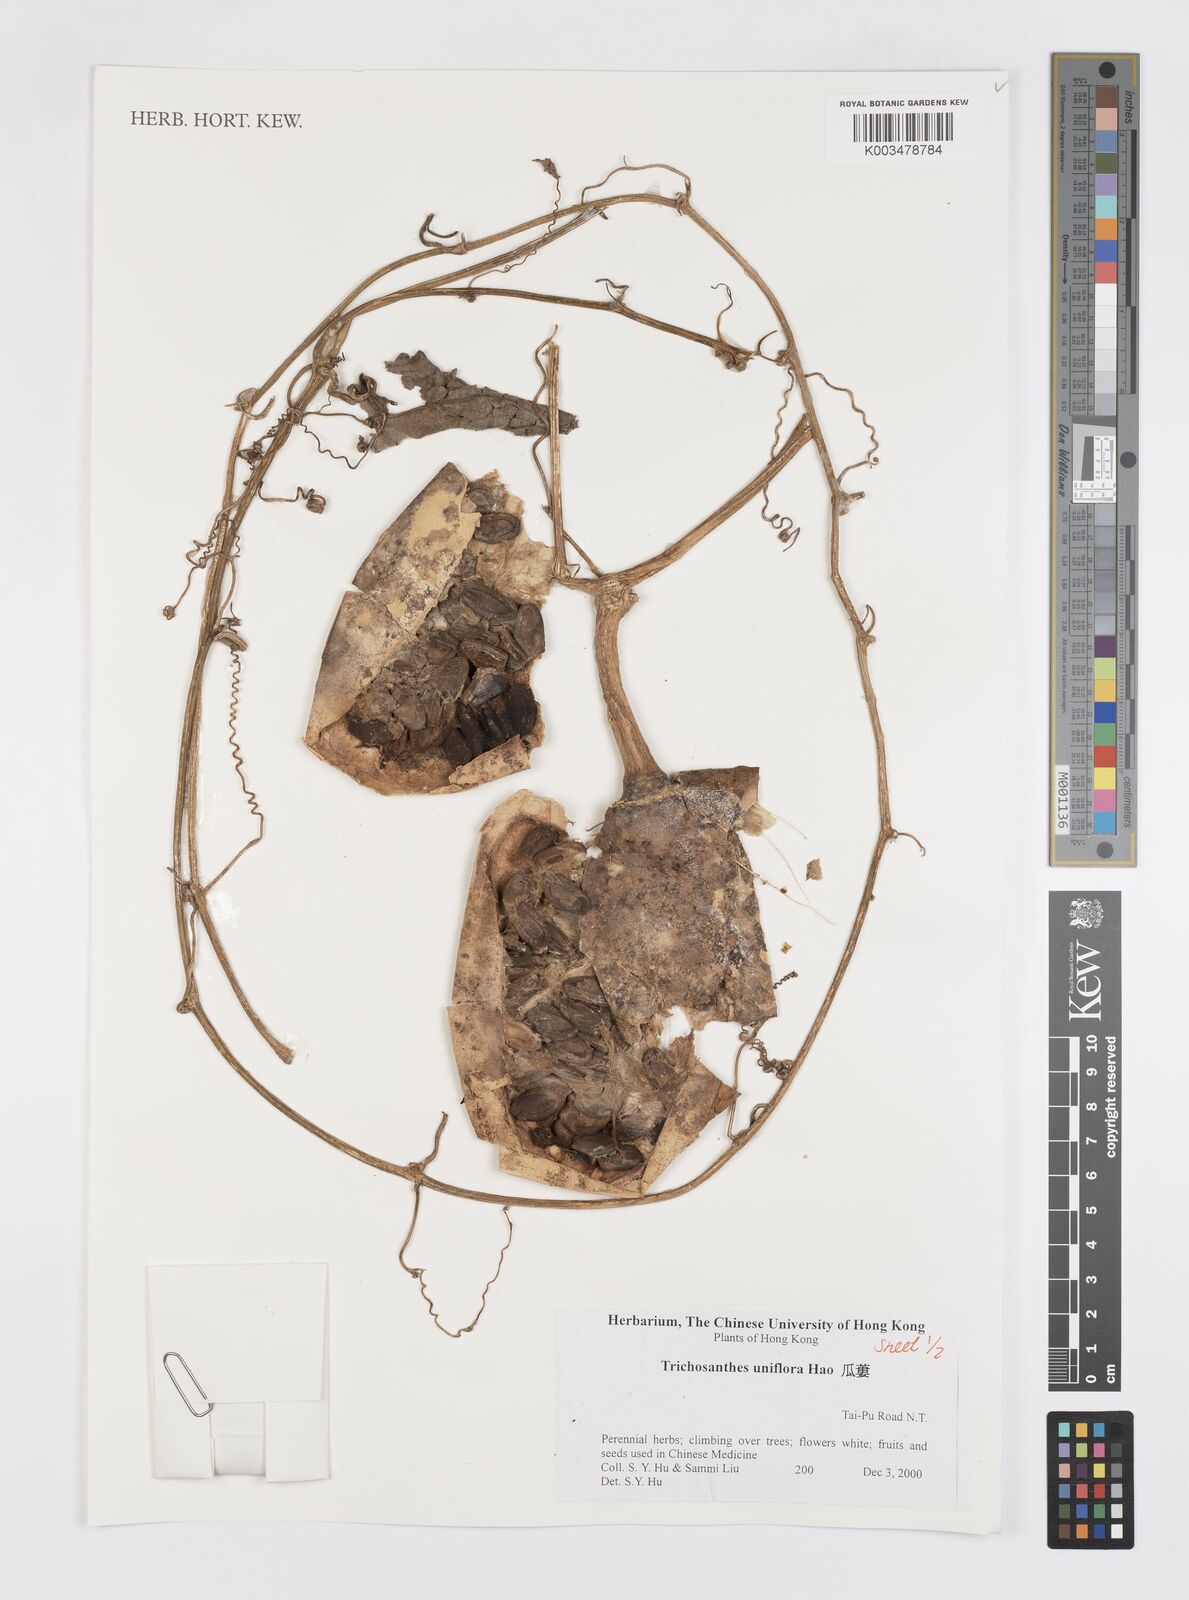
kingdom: Plantae
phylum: Tracheophyta
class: Magnoliopsida
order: Cucurbitales
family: Cucurbitaceae
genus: Trichosanthes
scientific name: Trichosanthes rosthornii
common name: Rosthorn snake gourd
